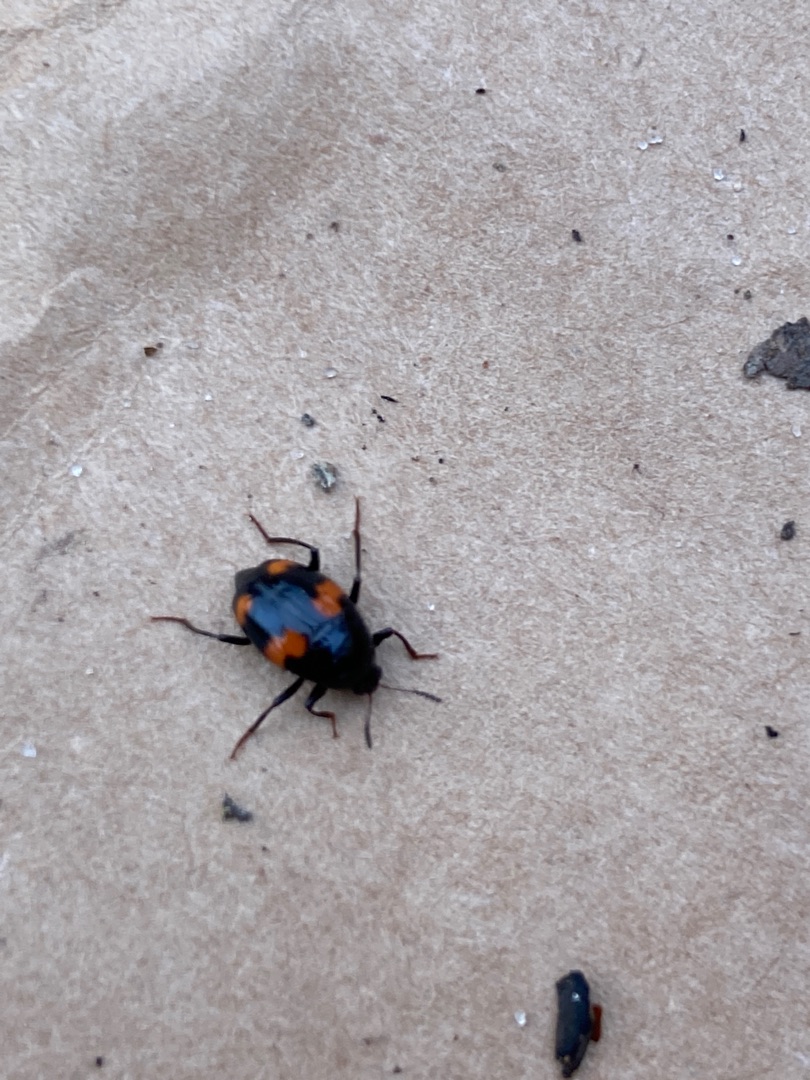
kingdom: Animalia
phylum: Arthropoda
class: Insecta
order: Coleoptera
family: Staphylinidae
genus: Scaphidium
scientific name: Scaphidium quadrimaculatum
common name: Dråberovbille
